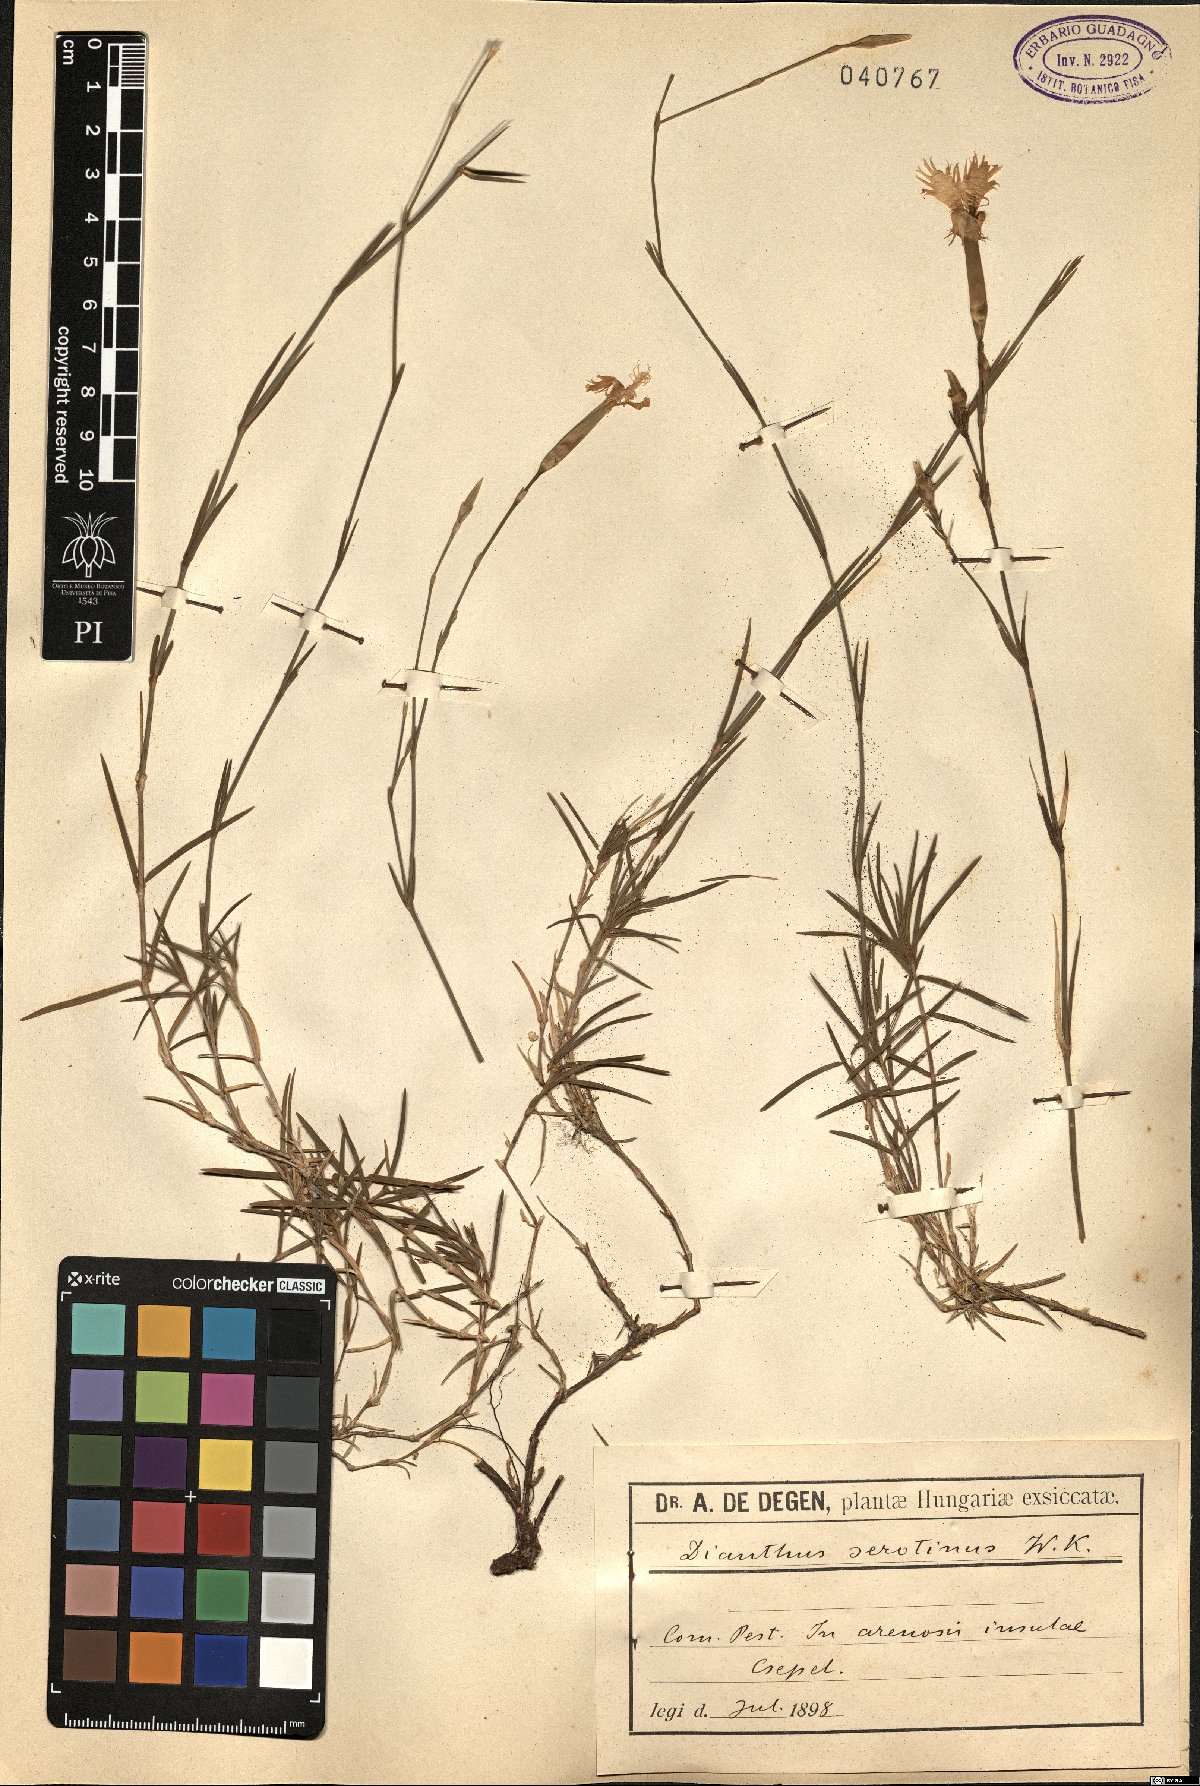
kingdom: Plantae
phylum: Tracheophyta
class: Magnoliopsida
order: Caryophyllales
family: Caryophyllaceae
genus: Dianthus
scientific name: Dianthus serotinus
